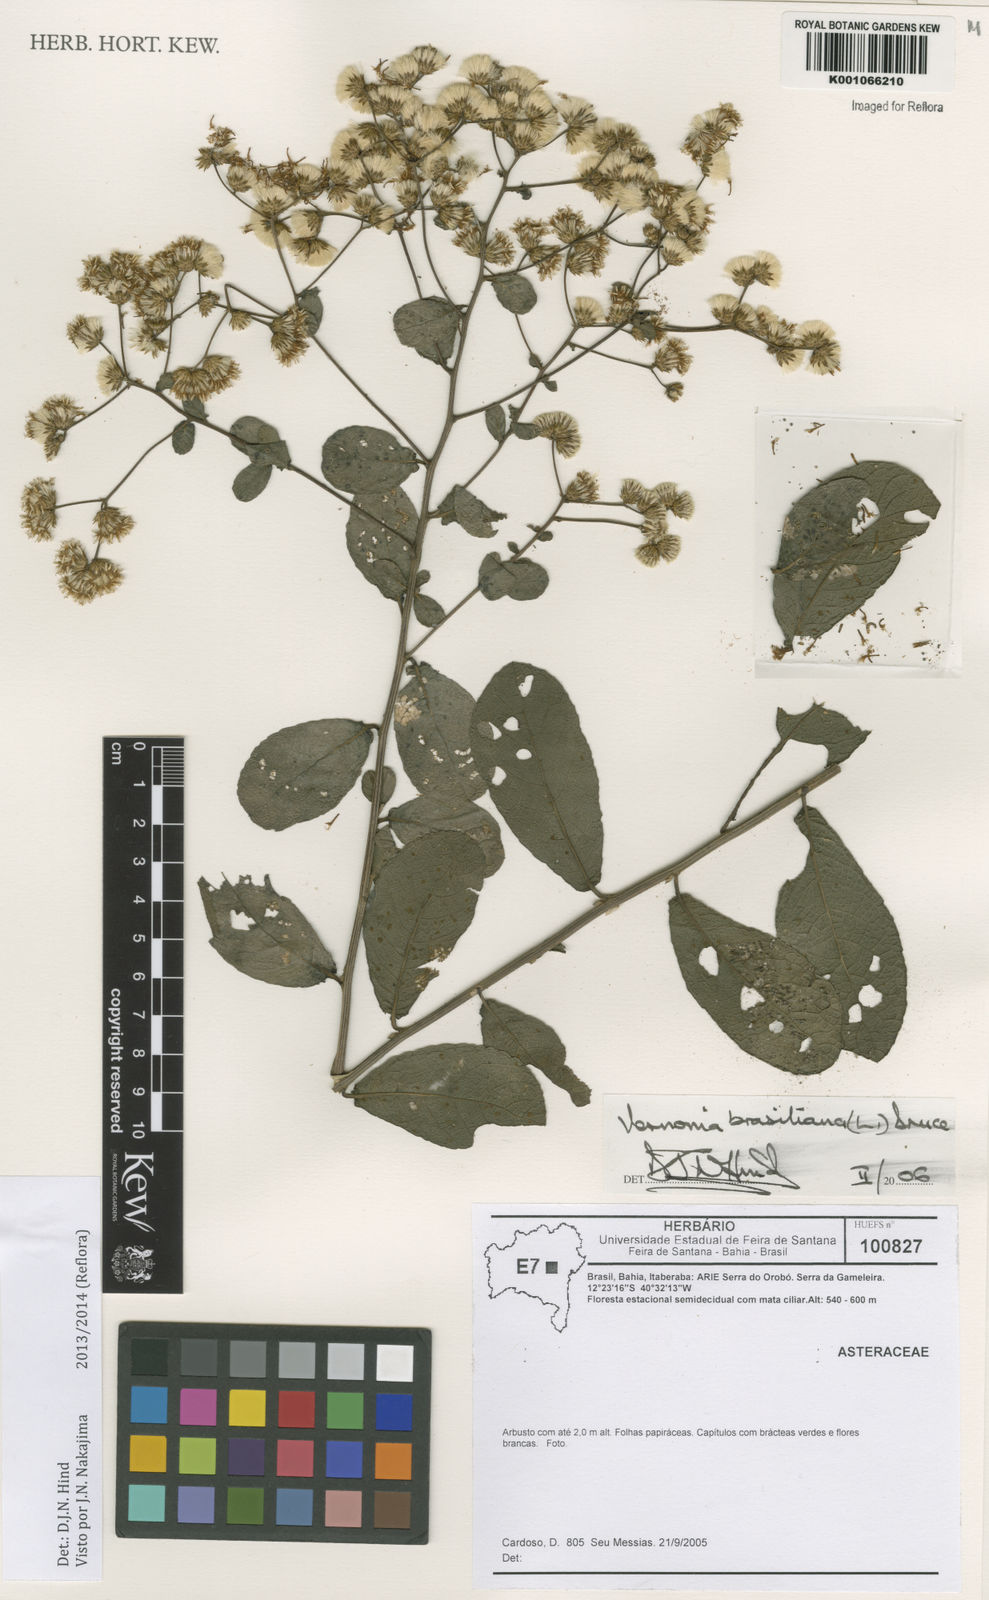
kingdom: Plantae
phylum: Tracheophyta
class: Magnoliopsida
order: Asterales
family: Asteraceae
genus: Vernonanthura
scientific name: Vernonanthura brasiliana
